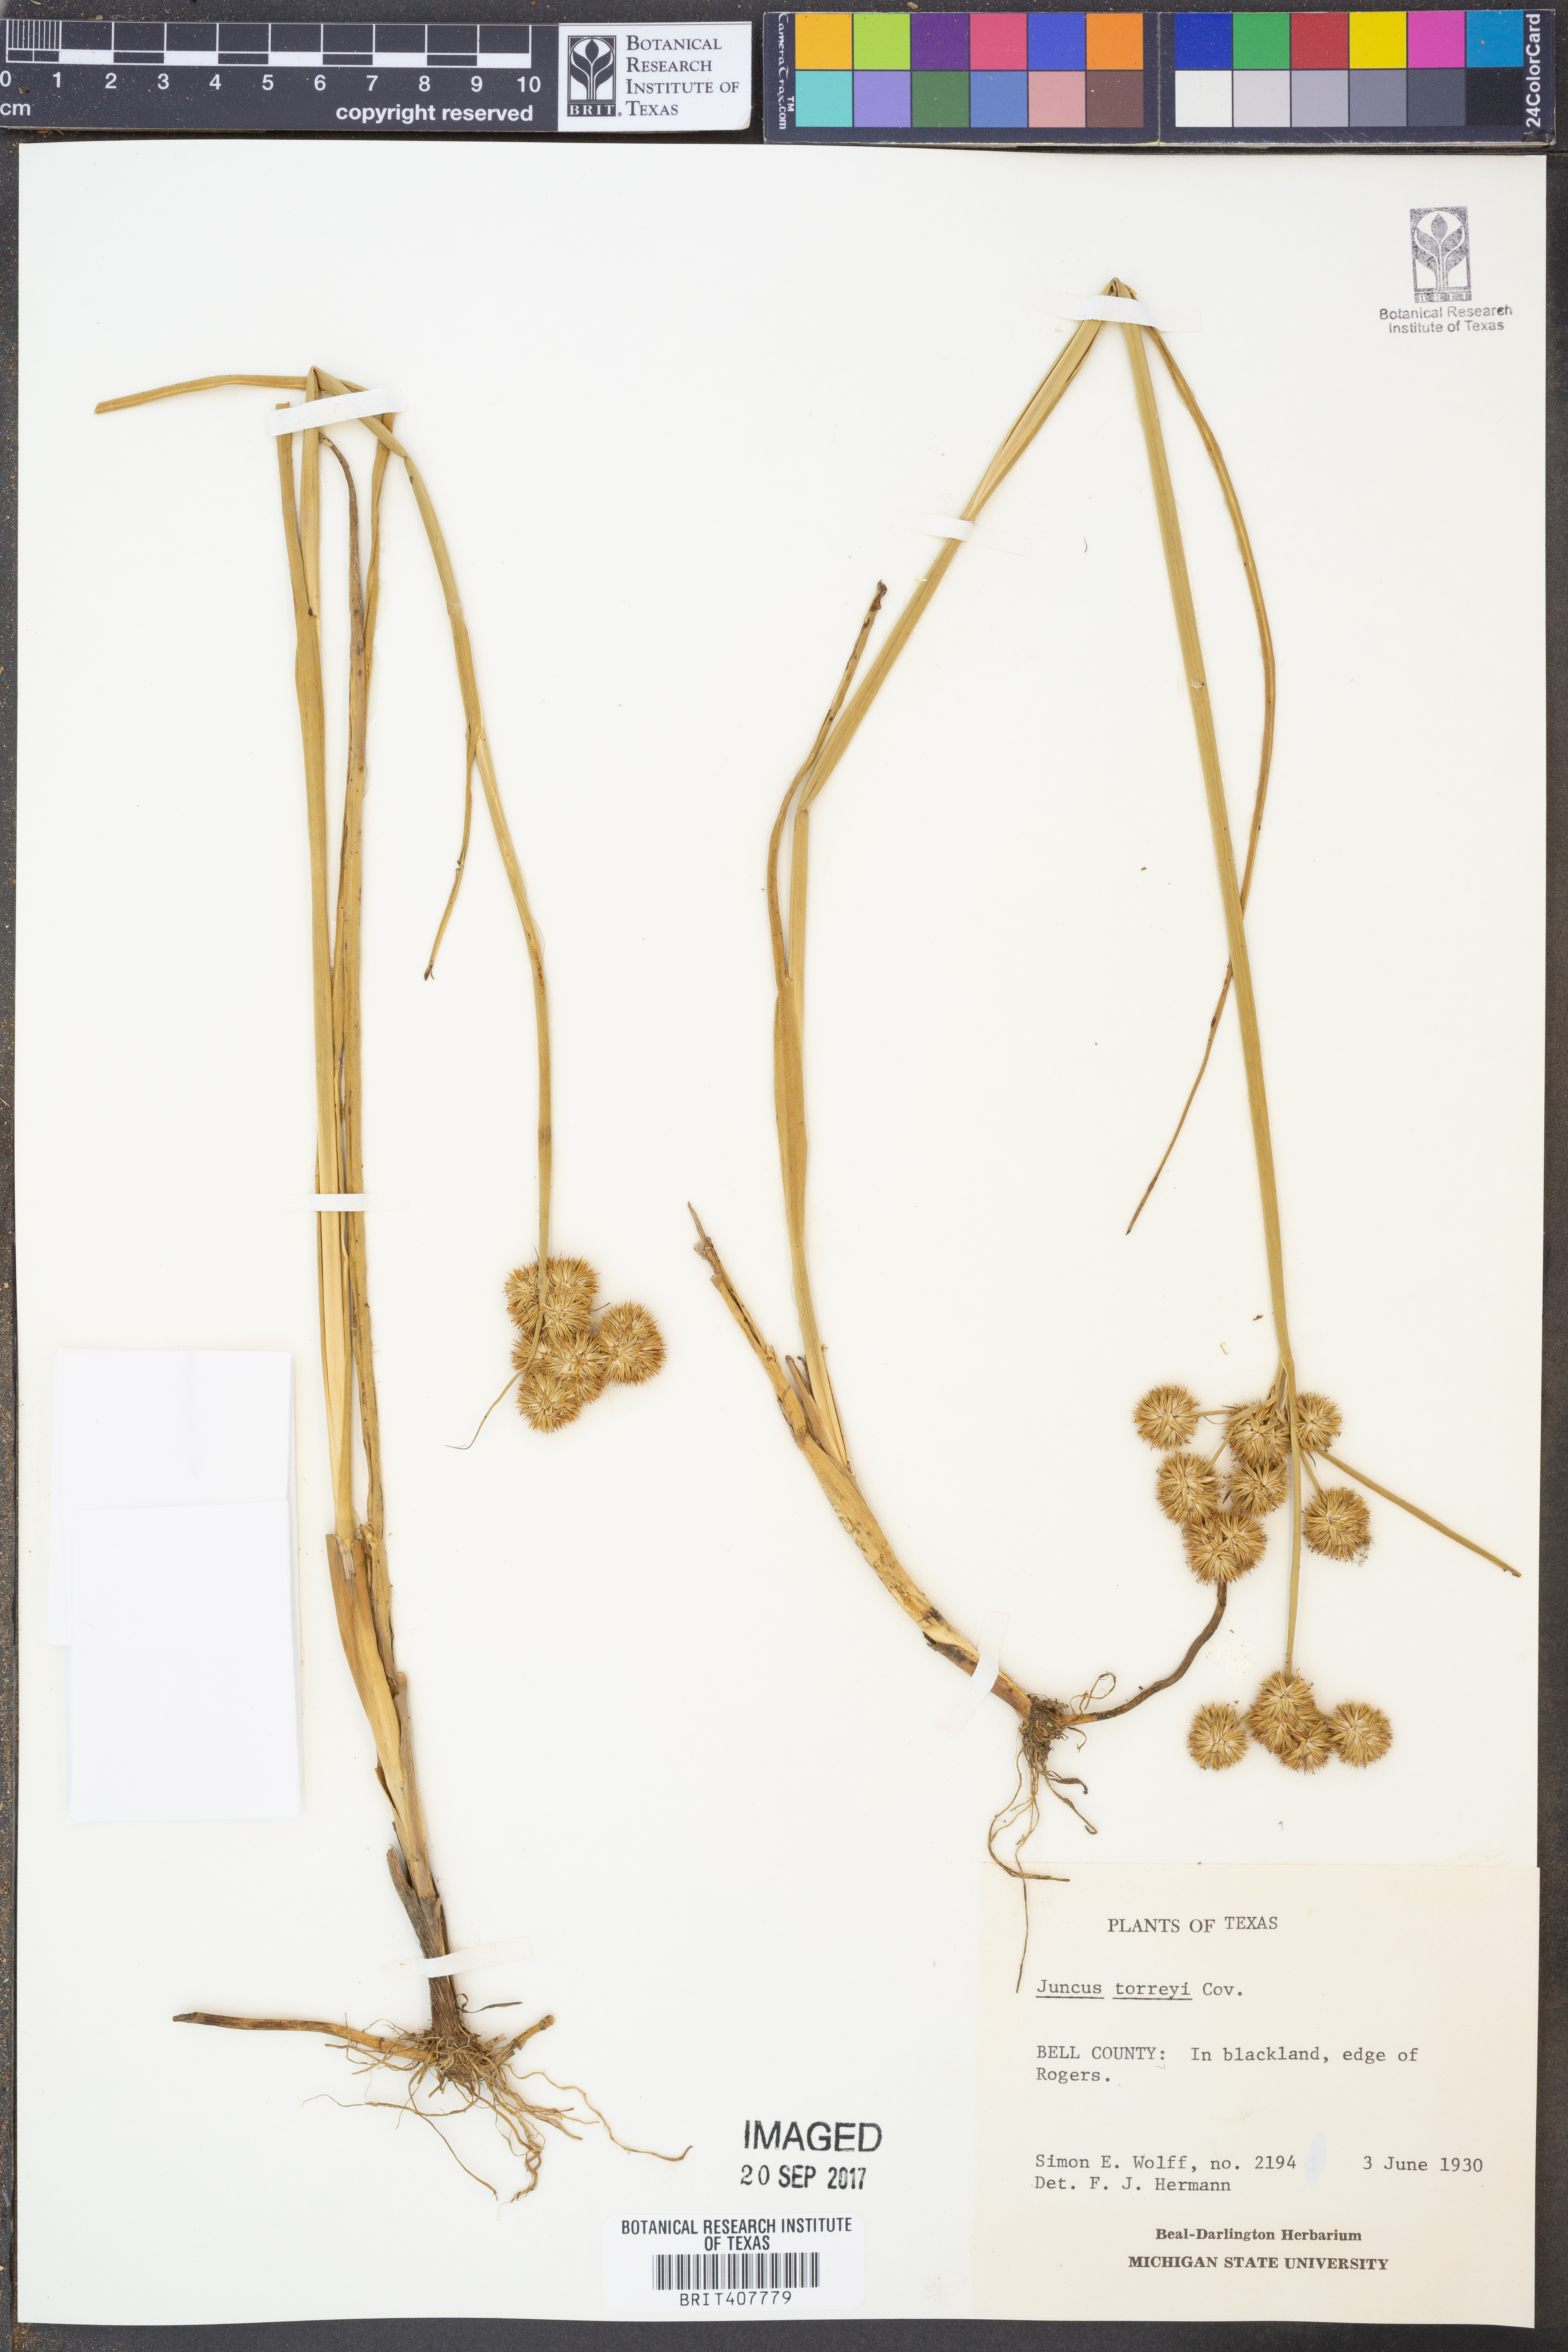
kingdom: Plantae
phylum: Tracheophyta
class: Liliopsida
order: Poales
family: Juncaceae
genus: Juncus
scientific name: Juncus torreyi
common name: Torrey's rush
